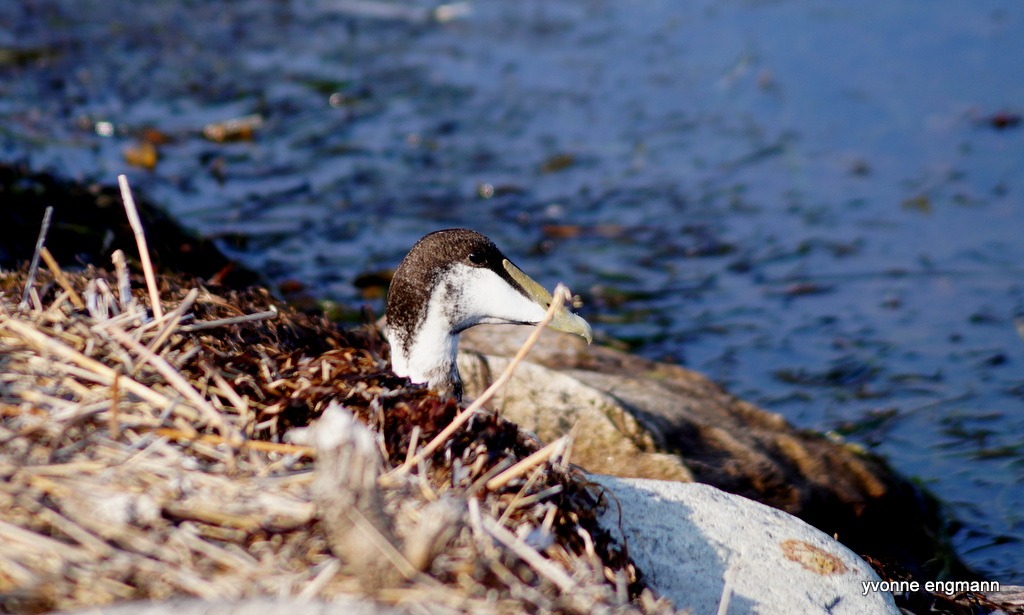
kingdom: Animalia
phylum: Chordata
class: Aves
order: Anseriformes
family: Anatidae
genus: Somateria
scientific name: Somateria mollissima
